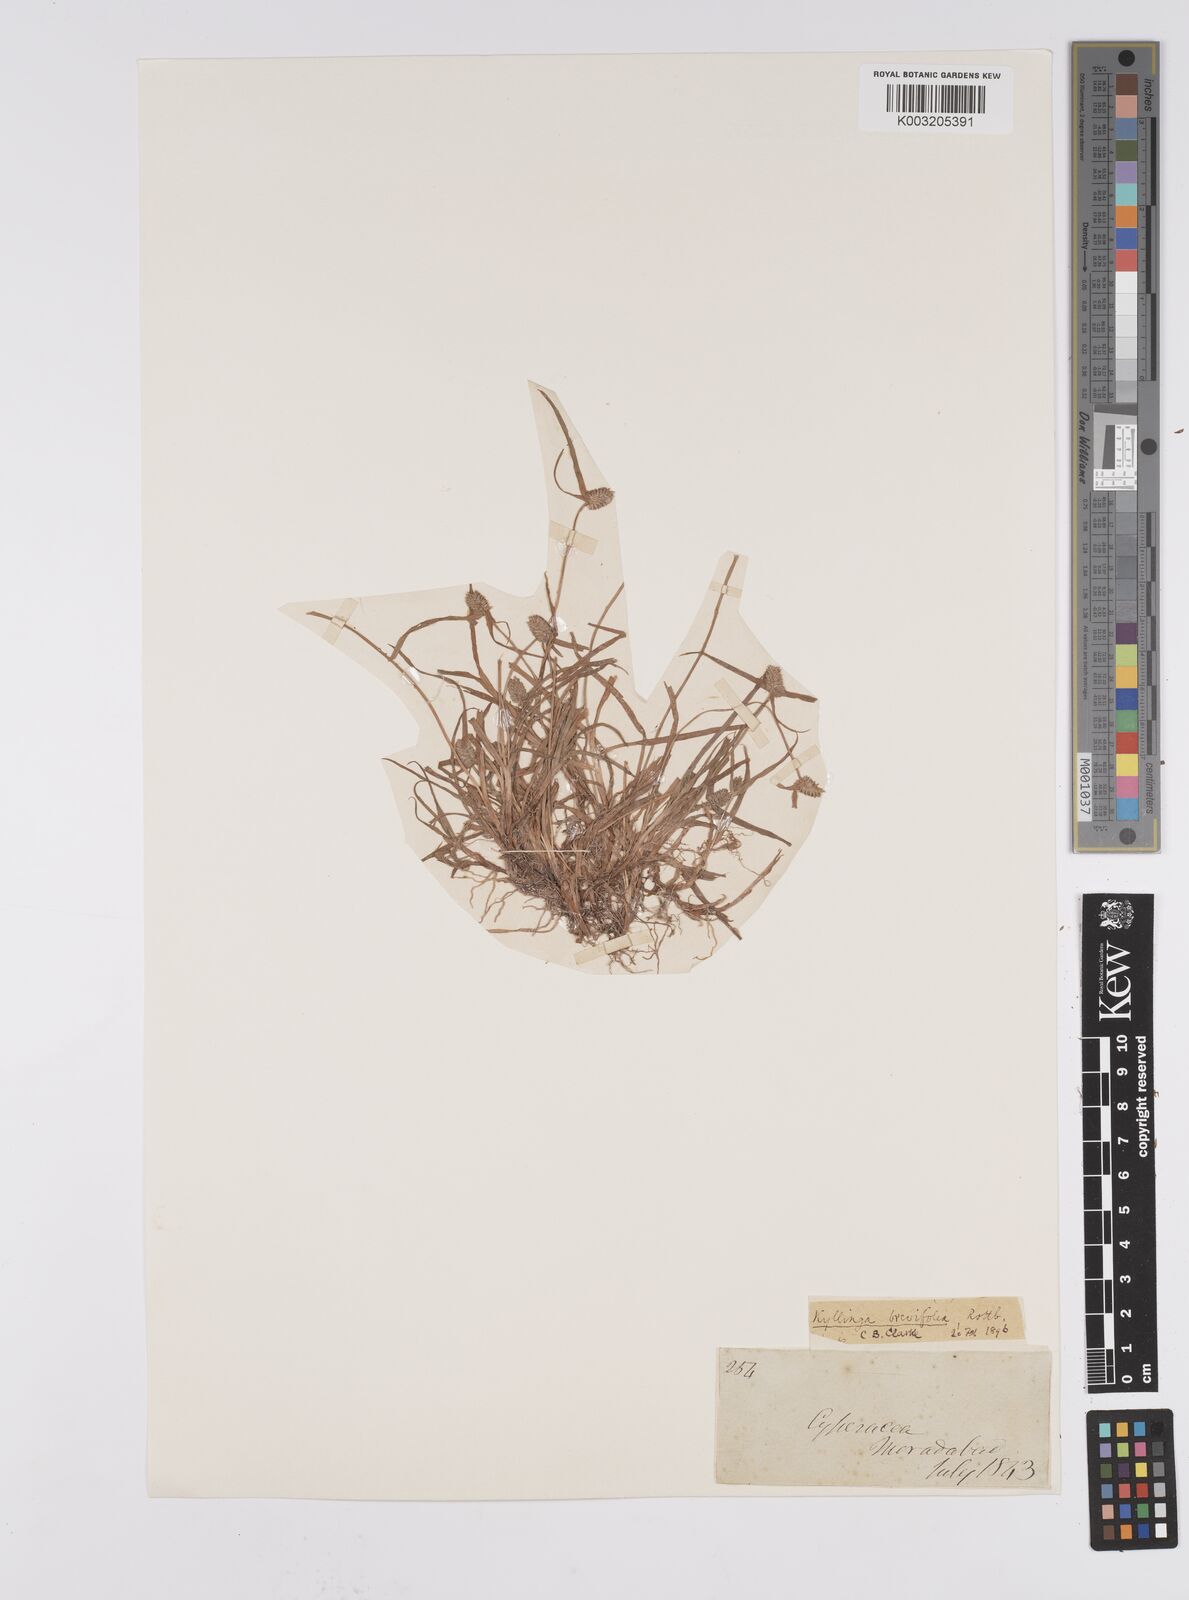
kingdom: Plantae
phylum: Tracheophyta
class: Liliopsida
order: Poales
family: Cyperaceae
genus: Cyperus
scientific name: Cyperus brevifolius
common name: Globe kyllinga
